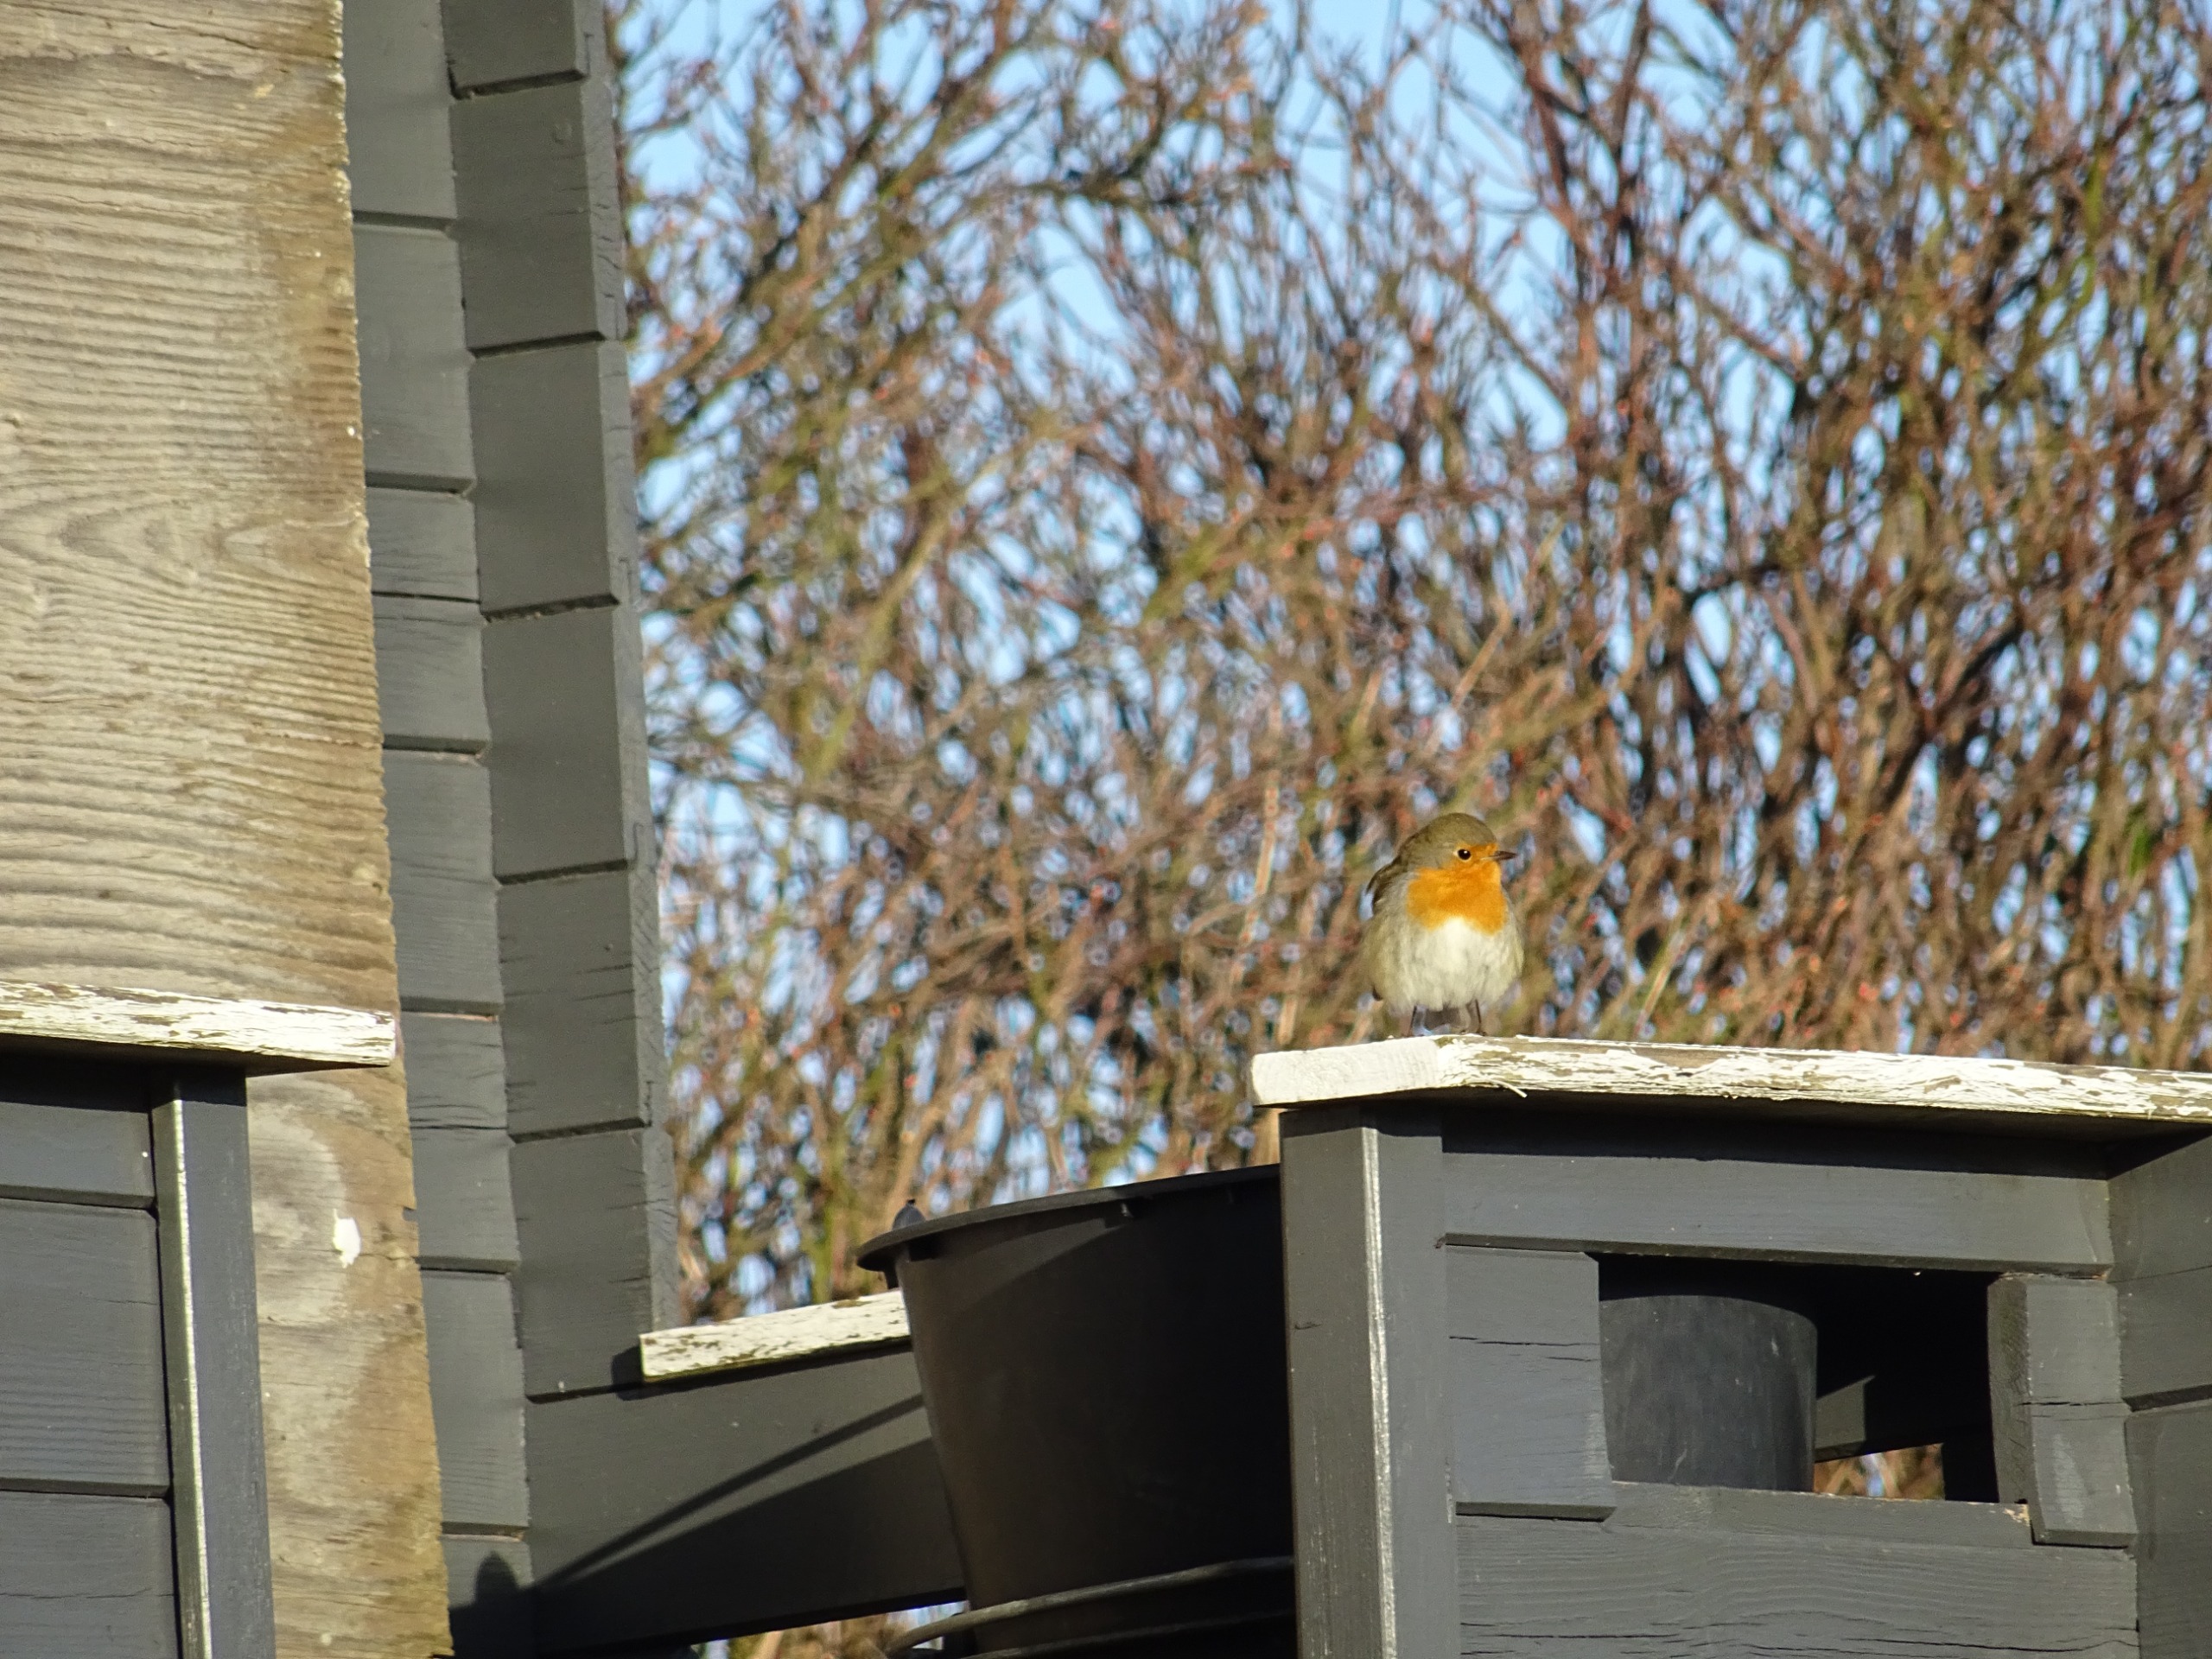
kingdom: Animalia
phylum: Chordata
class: Aves
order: Passeriformes
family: Muscicapidae
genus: Erithacus
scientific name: Erithacus rubecula
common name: Rødhals/rødkælk
